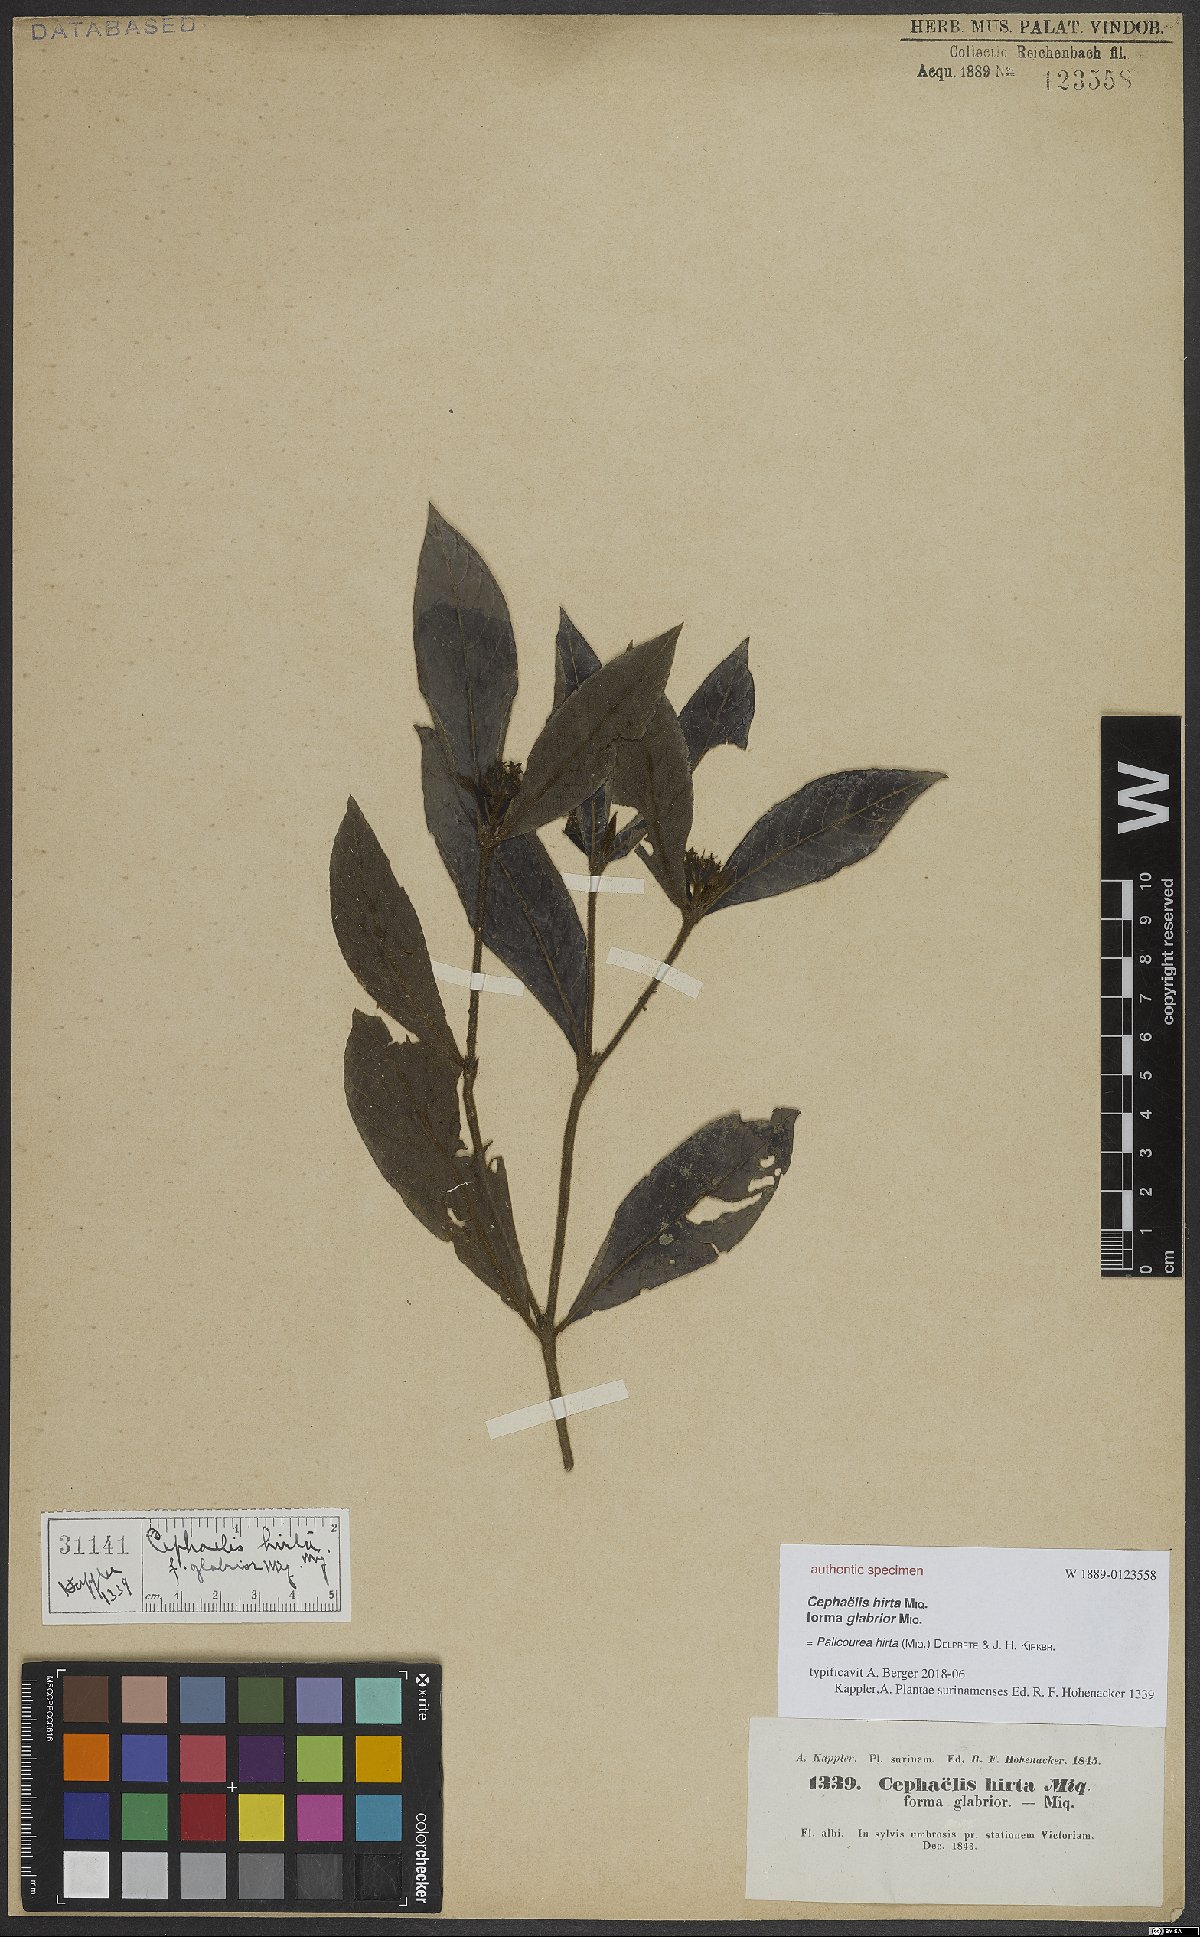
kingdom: Plantae
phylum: Tracheophyta
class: Magnoliopsida
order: Gentianales
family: Rubiaceae
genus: Palicourea
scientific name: Palicourea hirta
